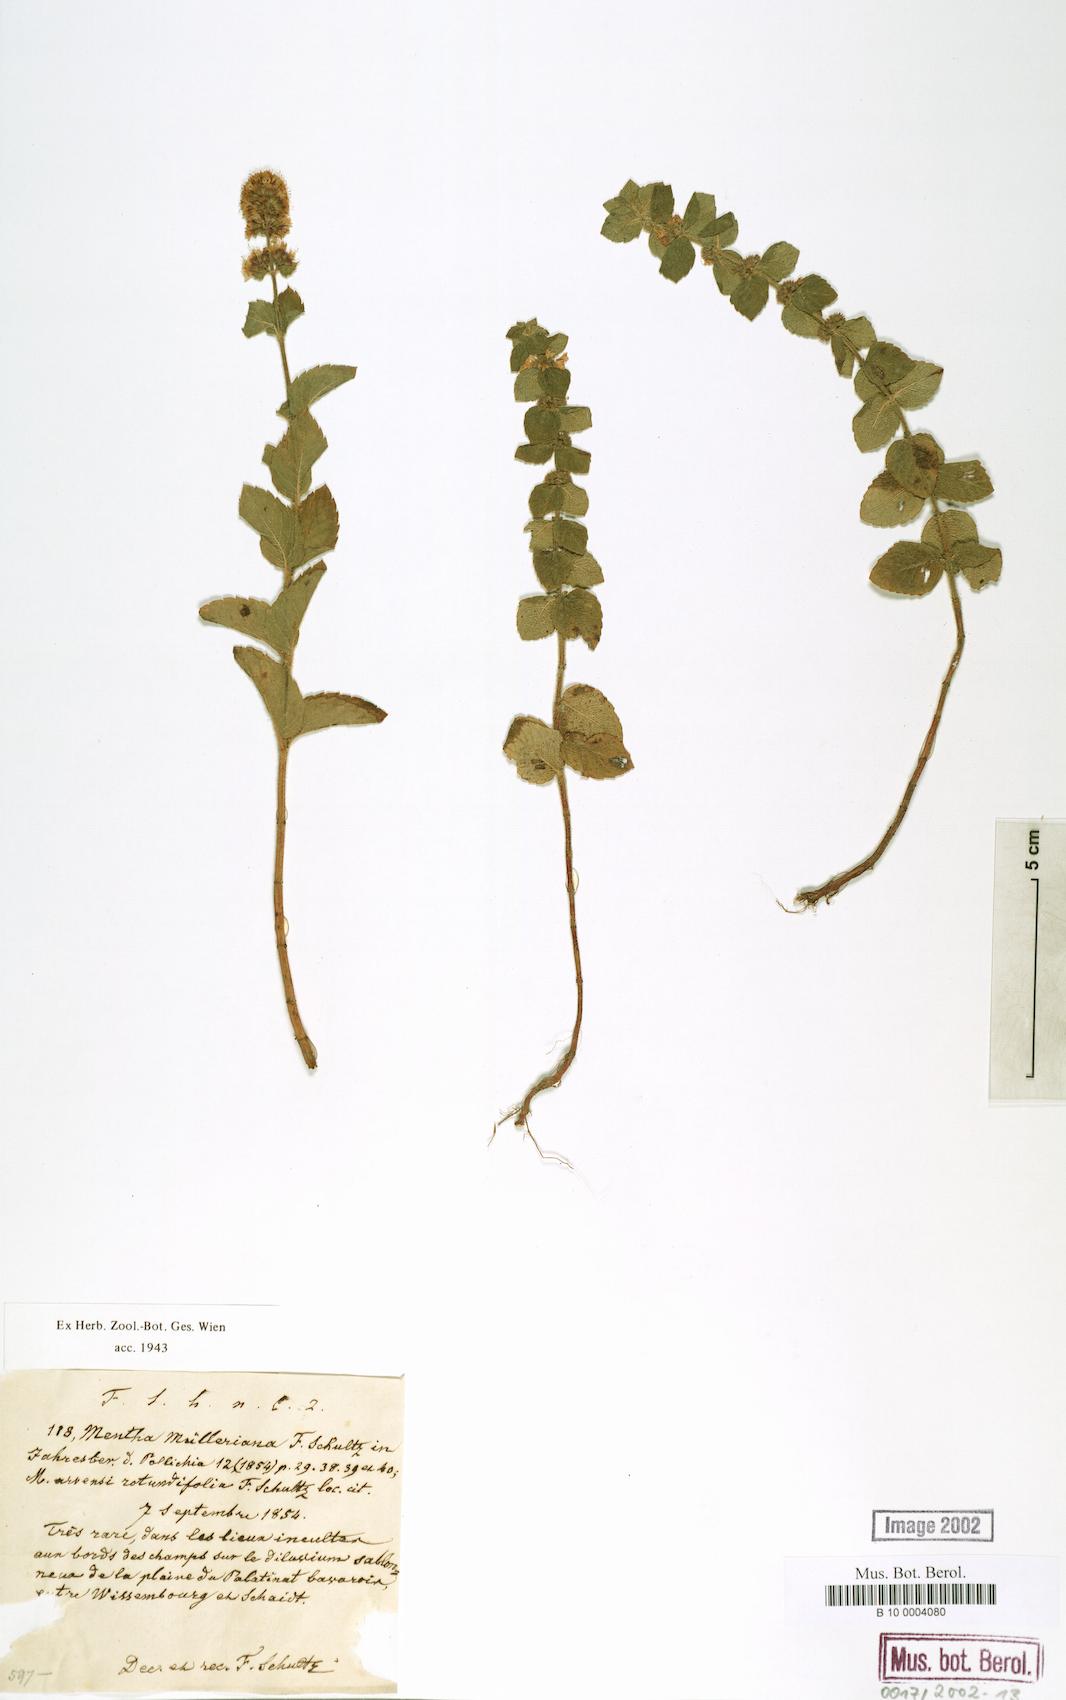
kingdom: Plantae
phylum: Tracheophyta
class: Magnoliopsida
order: Lamiales
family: Lamiaceae
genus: Mentha
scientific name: Mentha carinthiaca
